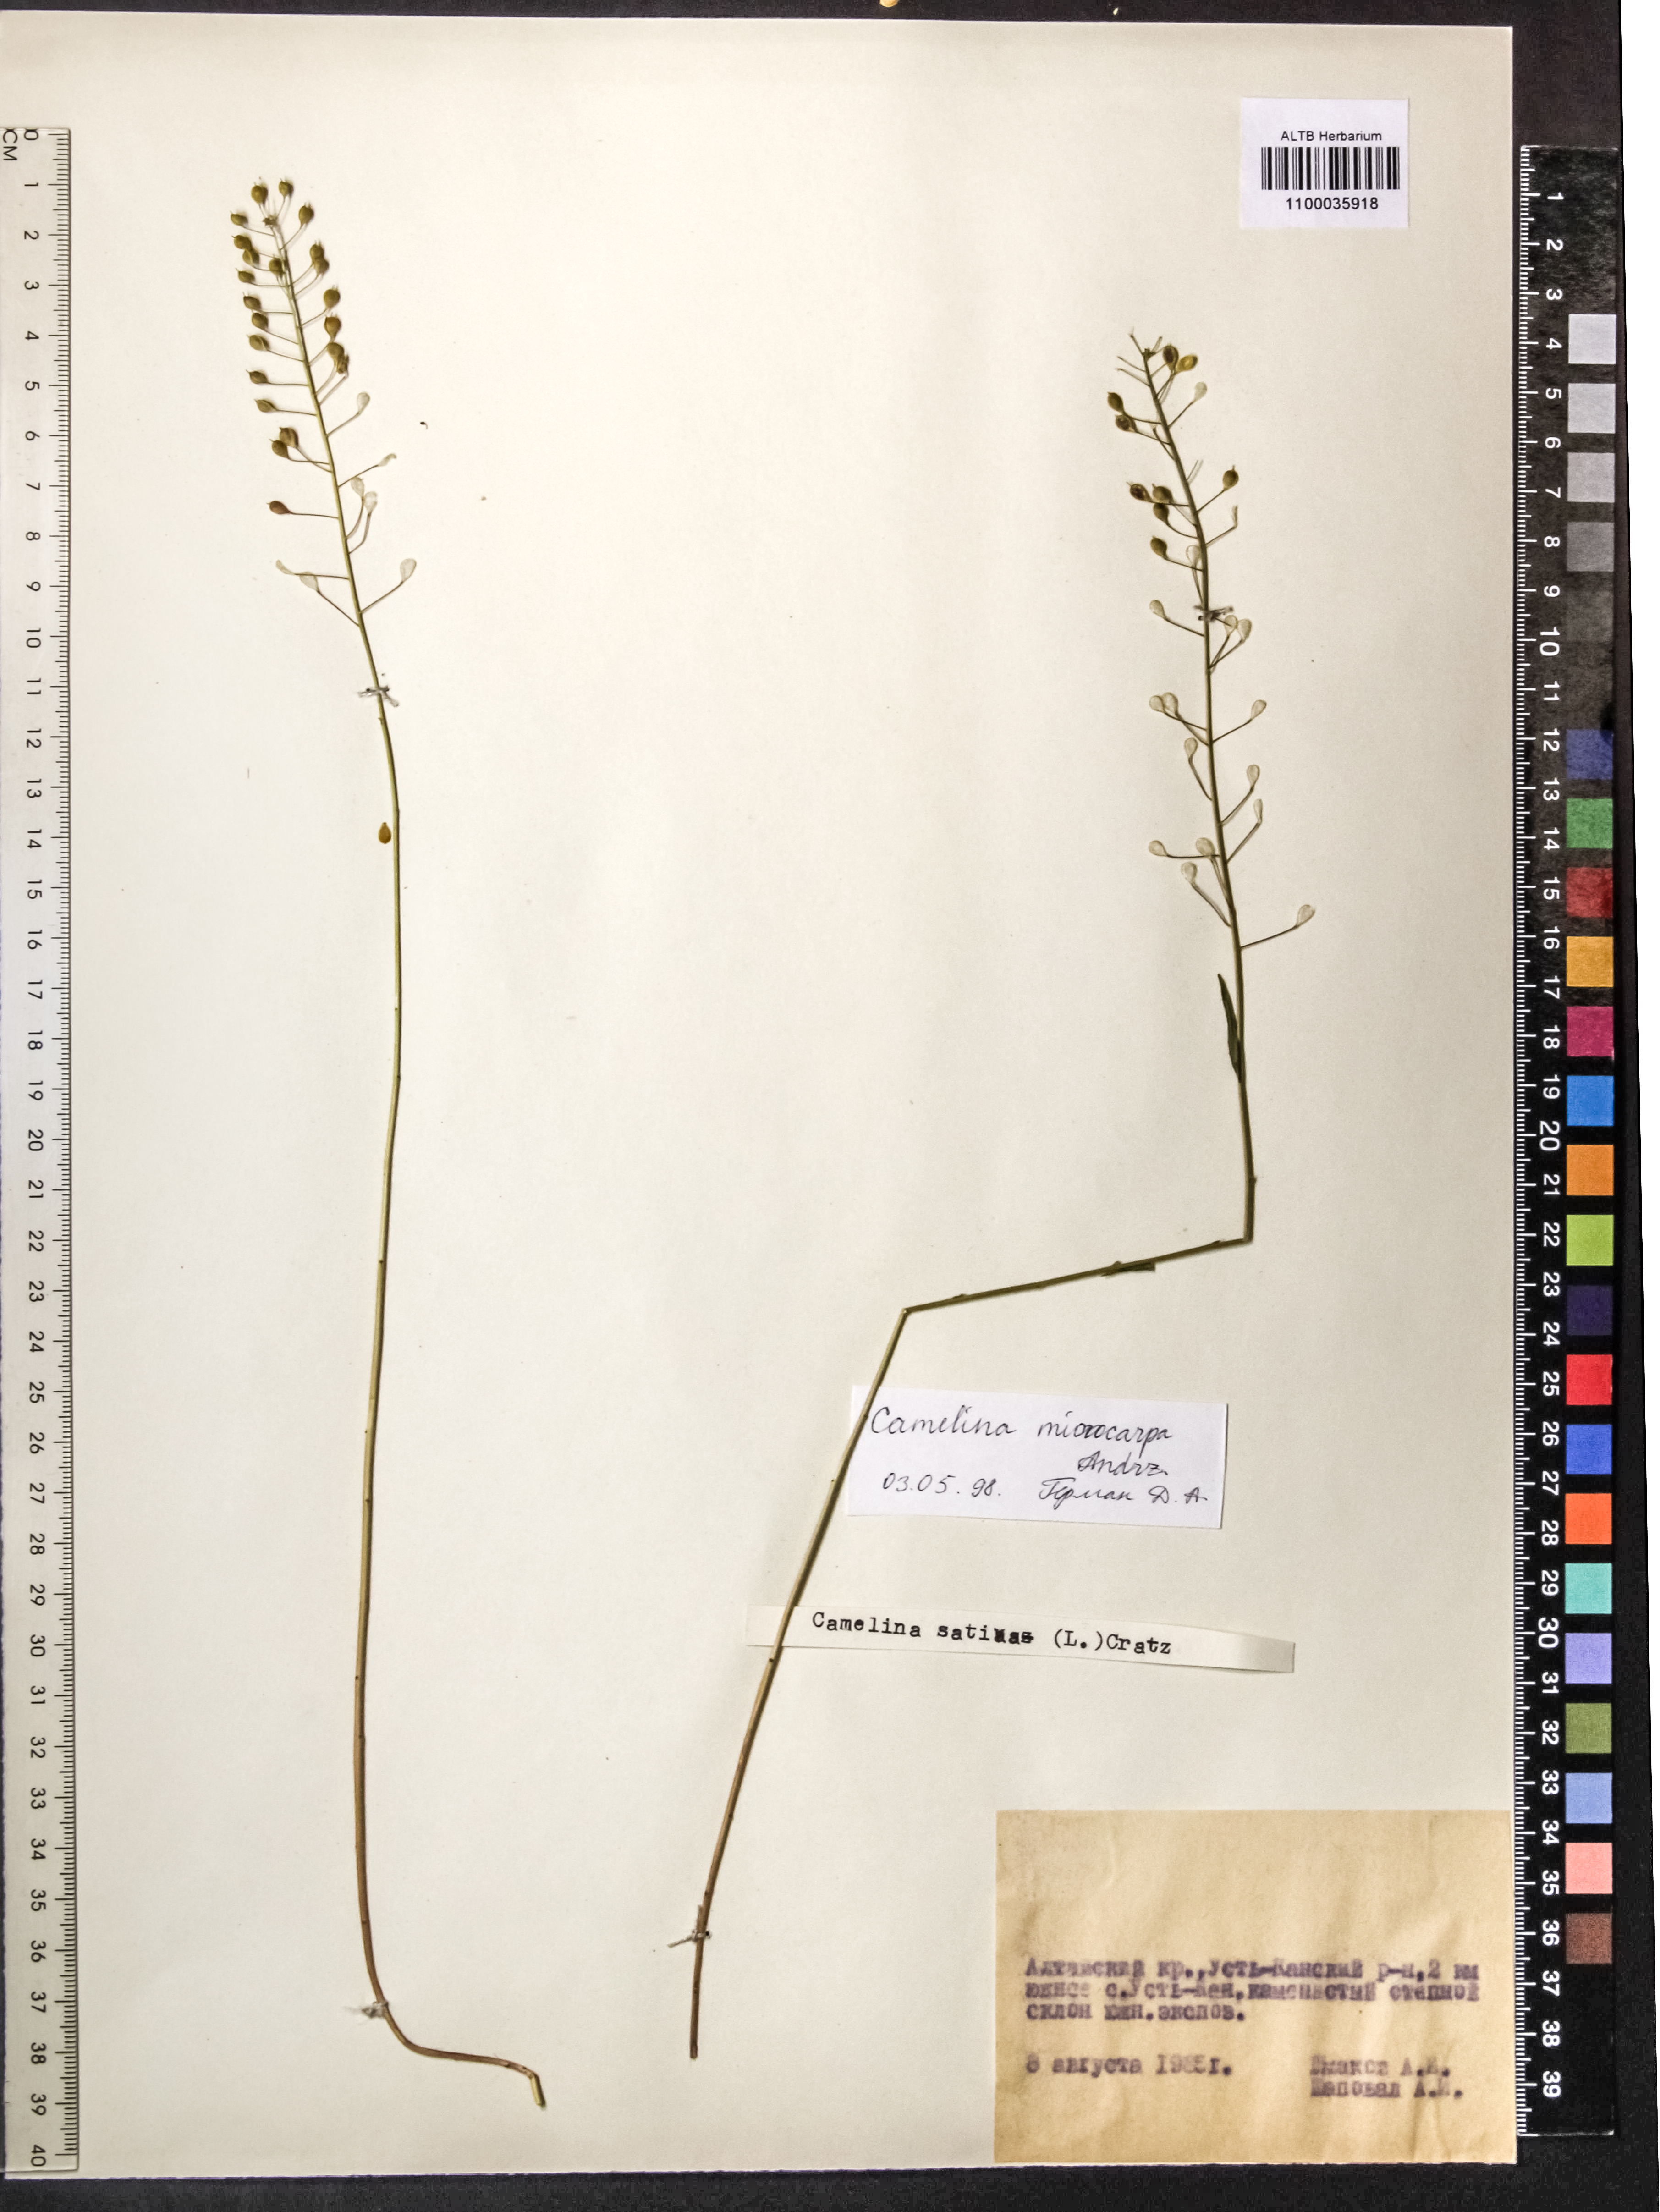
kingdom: Plantae
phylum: Tracheophyta
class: Magnoliopsida
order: Brassicales
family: Brassicaceae
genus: Camelina
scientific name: Camelina microcarpa
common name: Lesser gold-of-pleasure
